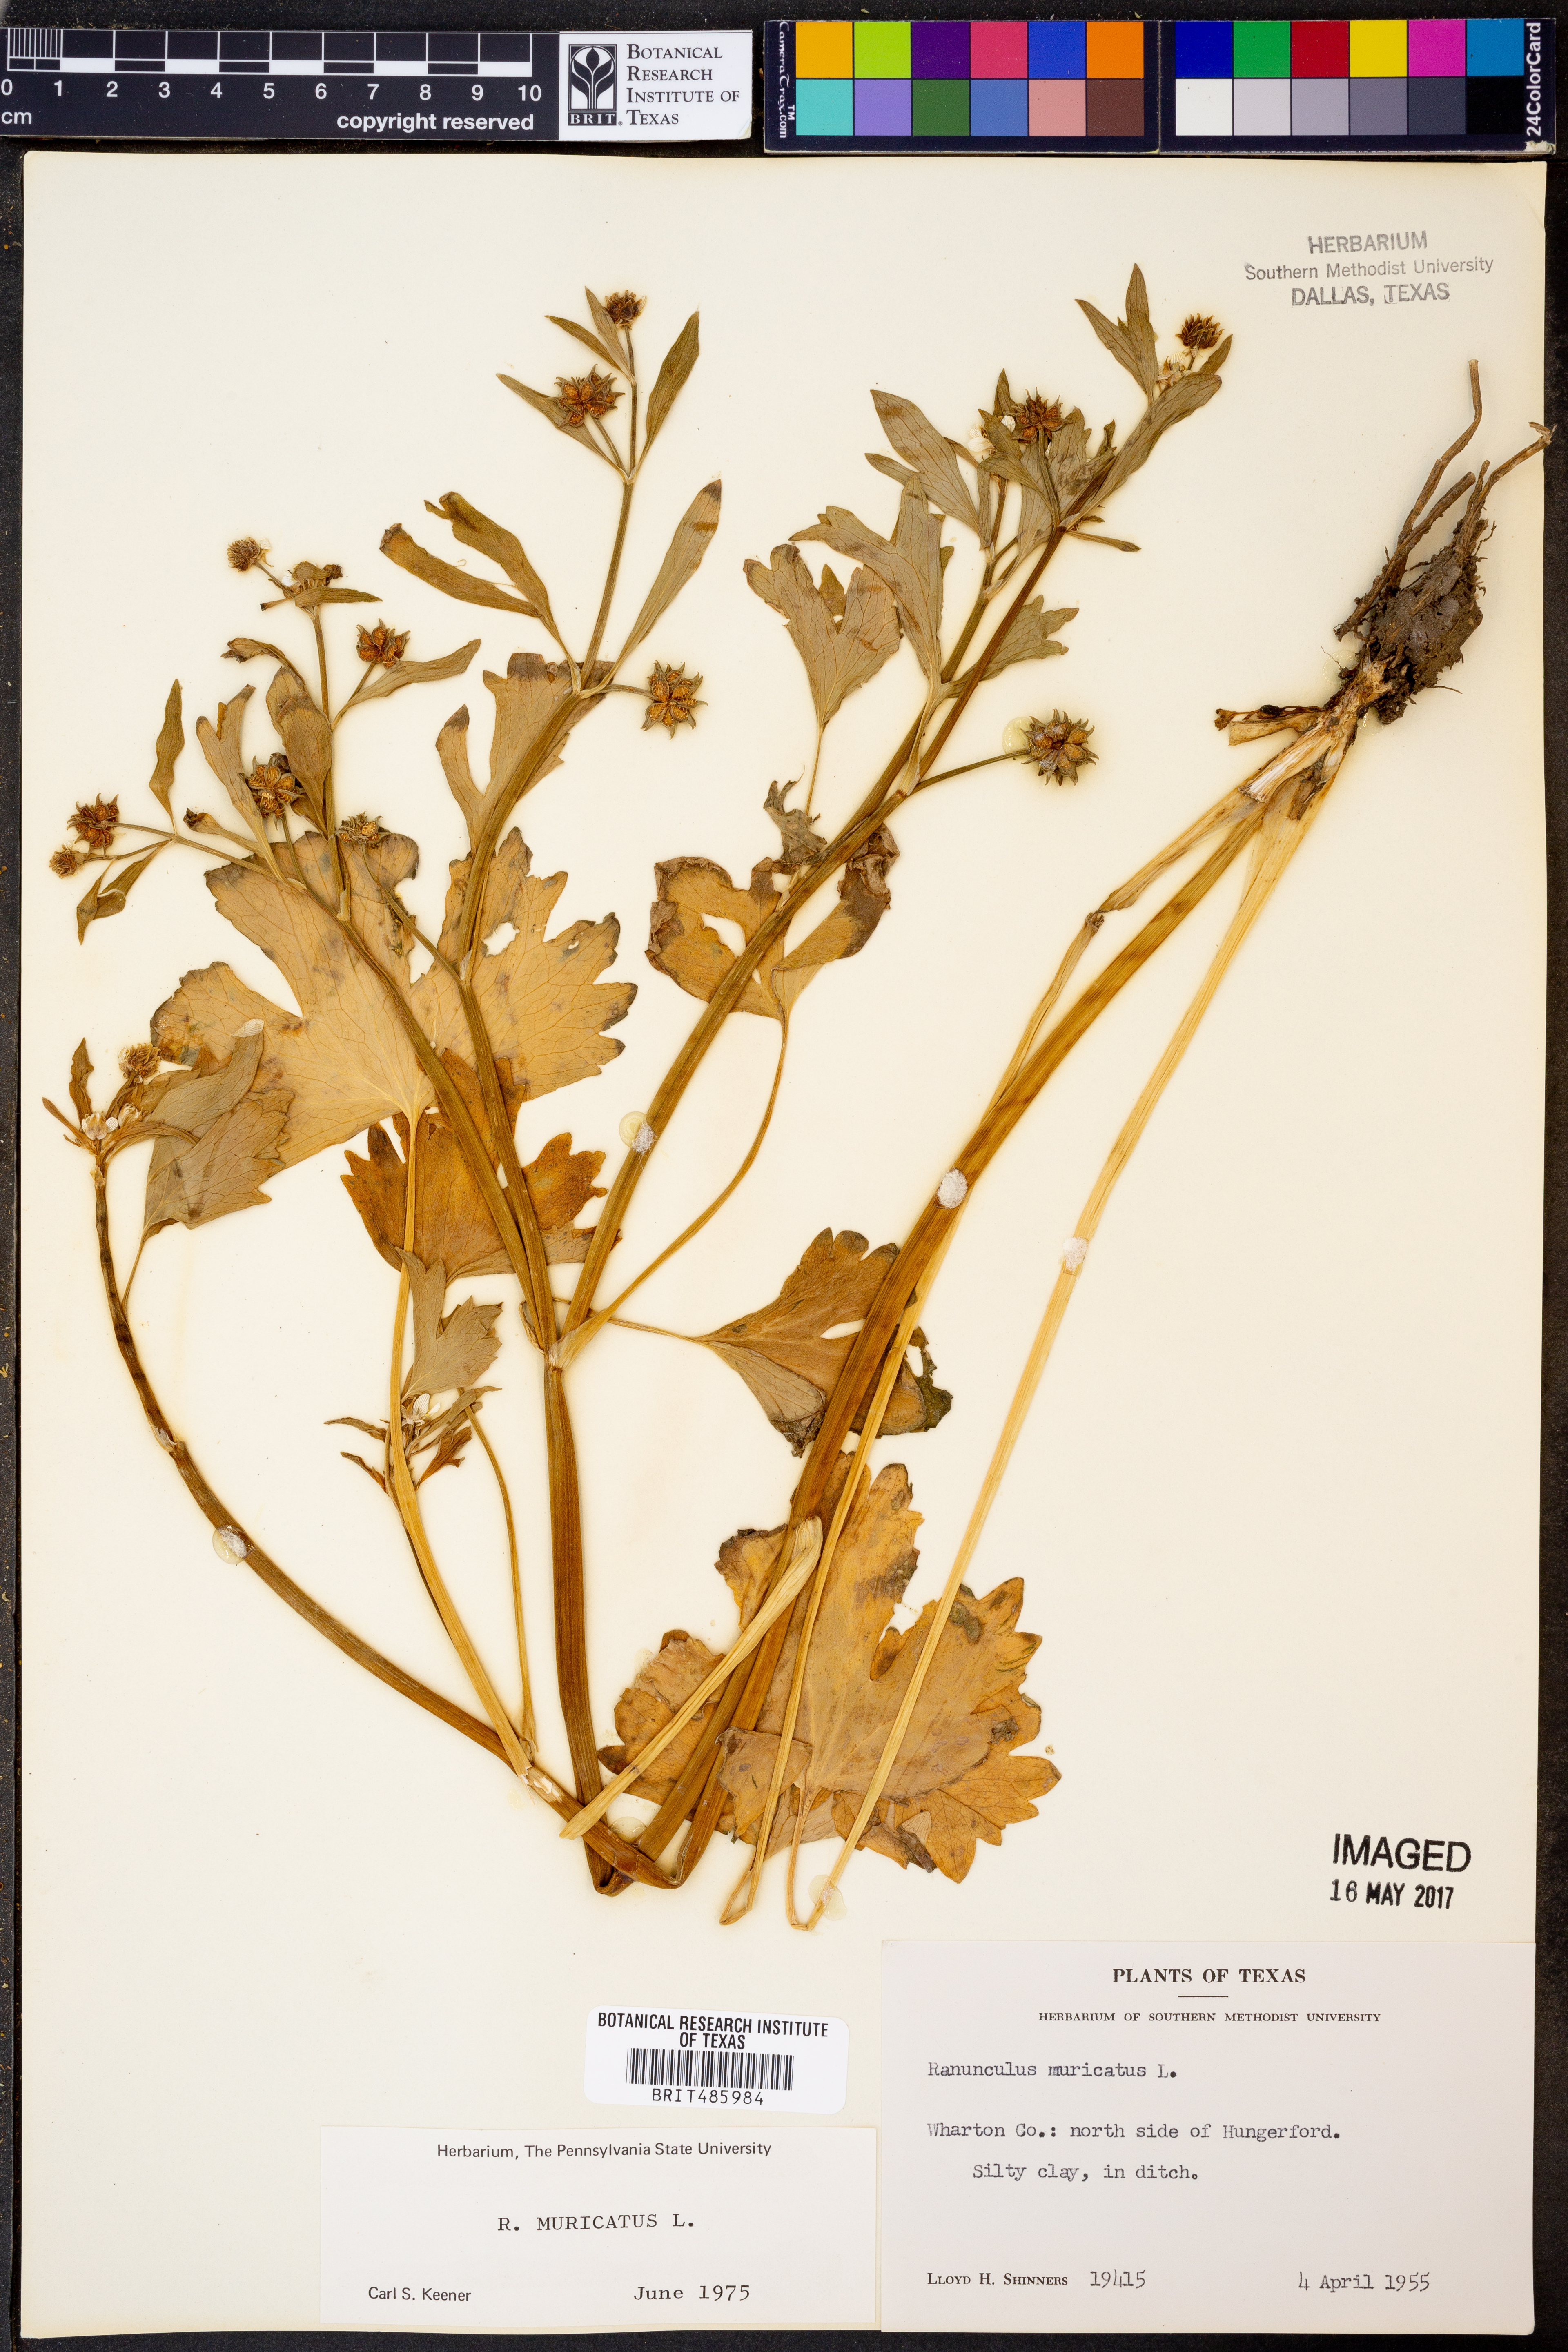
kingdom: Plantae
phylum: Tracheophyta
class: Magnoliopsida
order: Ranunculales
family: Ranunculaceae
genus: Ranunculus
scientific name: Ranunculus muricatus
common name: Rough-fruited buttercup
